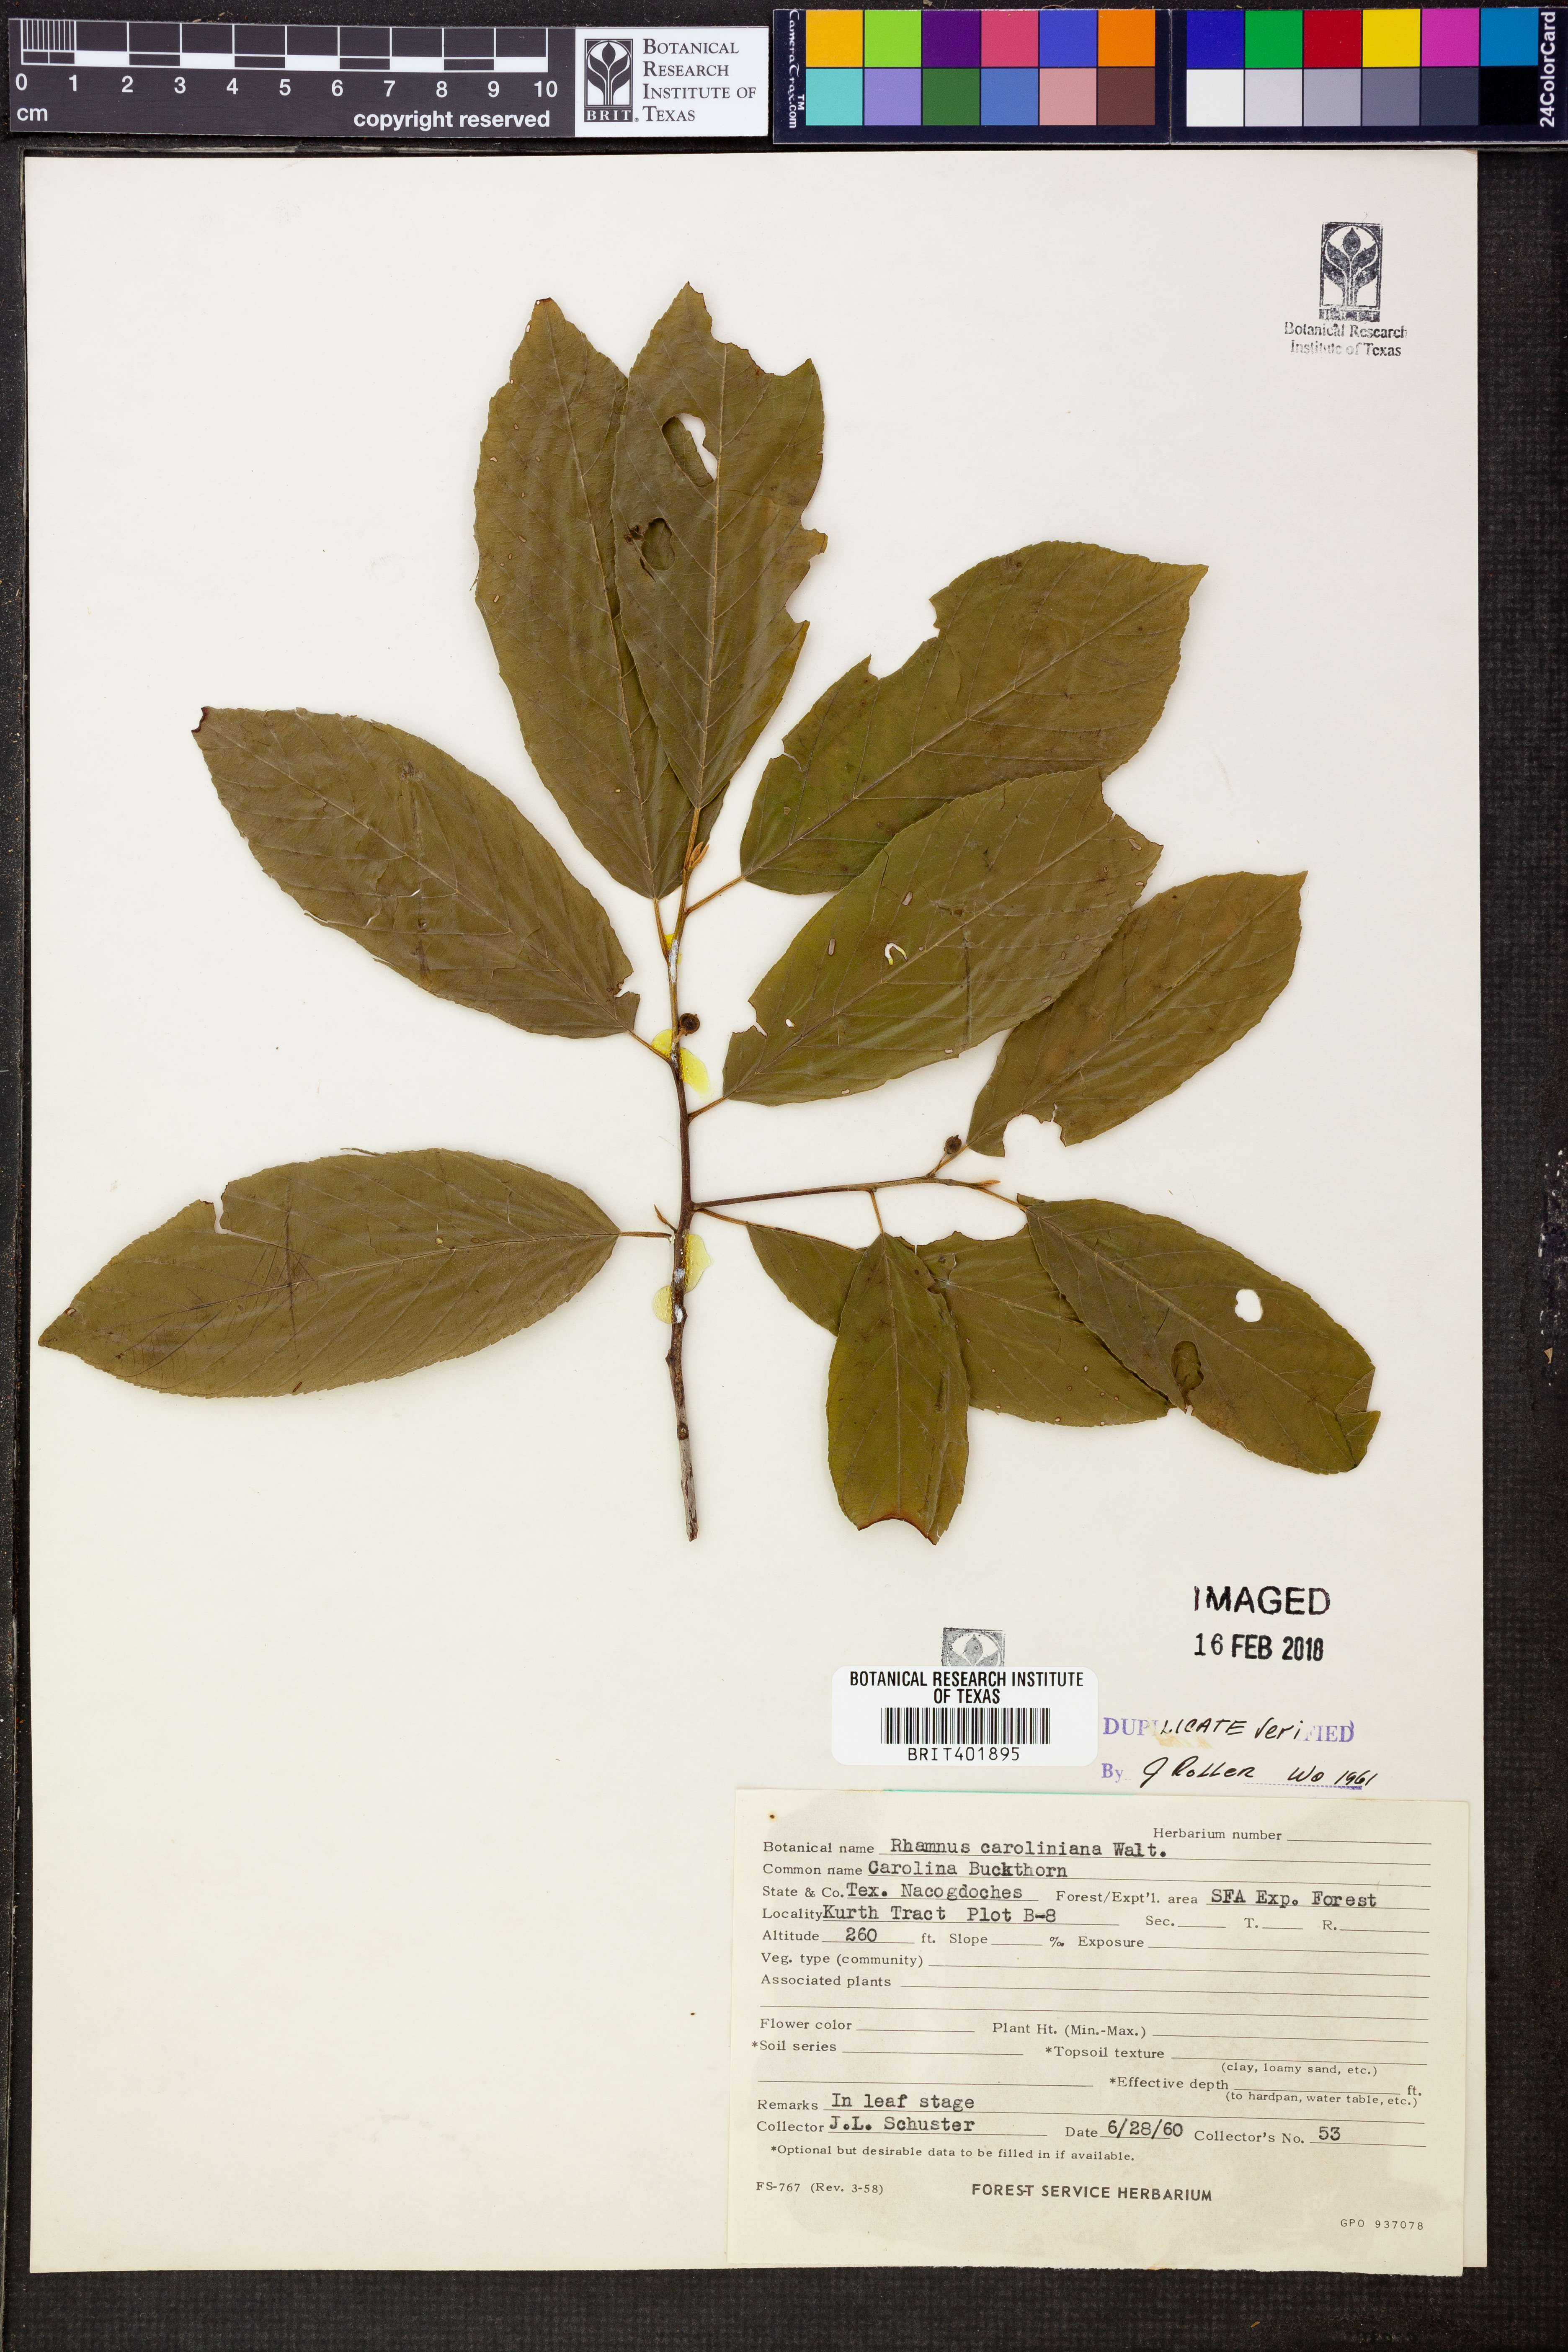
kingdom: Plantae
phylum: Tracheophyta
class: Magnoliopsida
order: Rosales
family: Rhamnaceae
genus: Frangula
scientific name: Frangula caroliniana
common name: Carolina buckthorn
